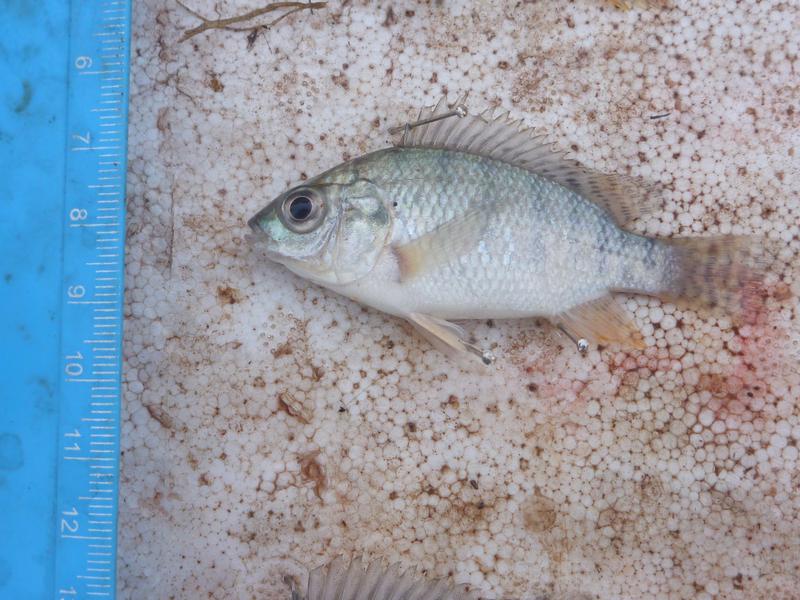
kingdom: Animalia
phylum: Chordata
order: Perciformes
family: Cichlidae
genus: Oreochromis
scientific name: Oreochromis niloticus
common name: Nile tilapia
